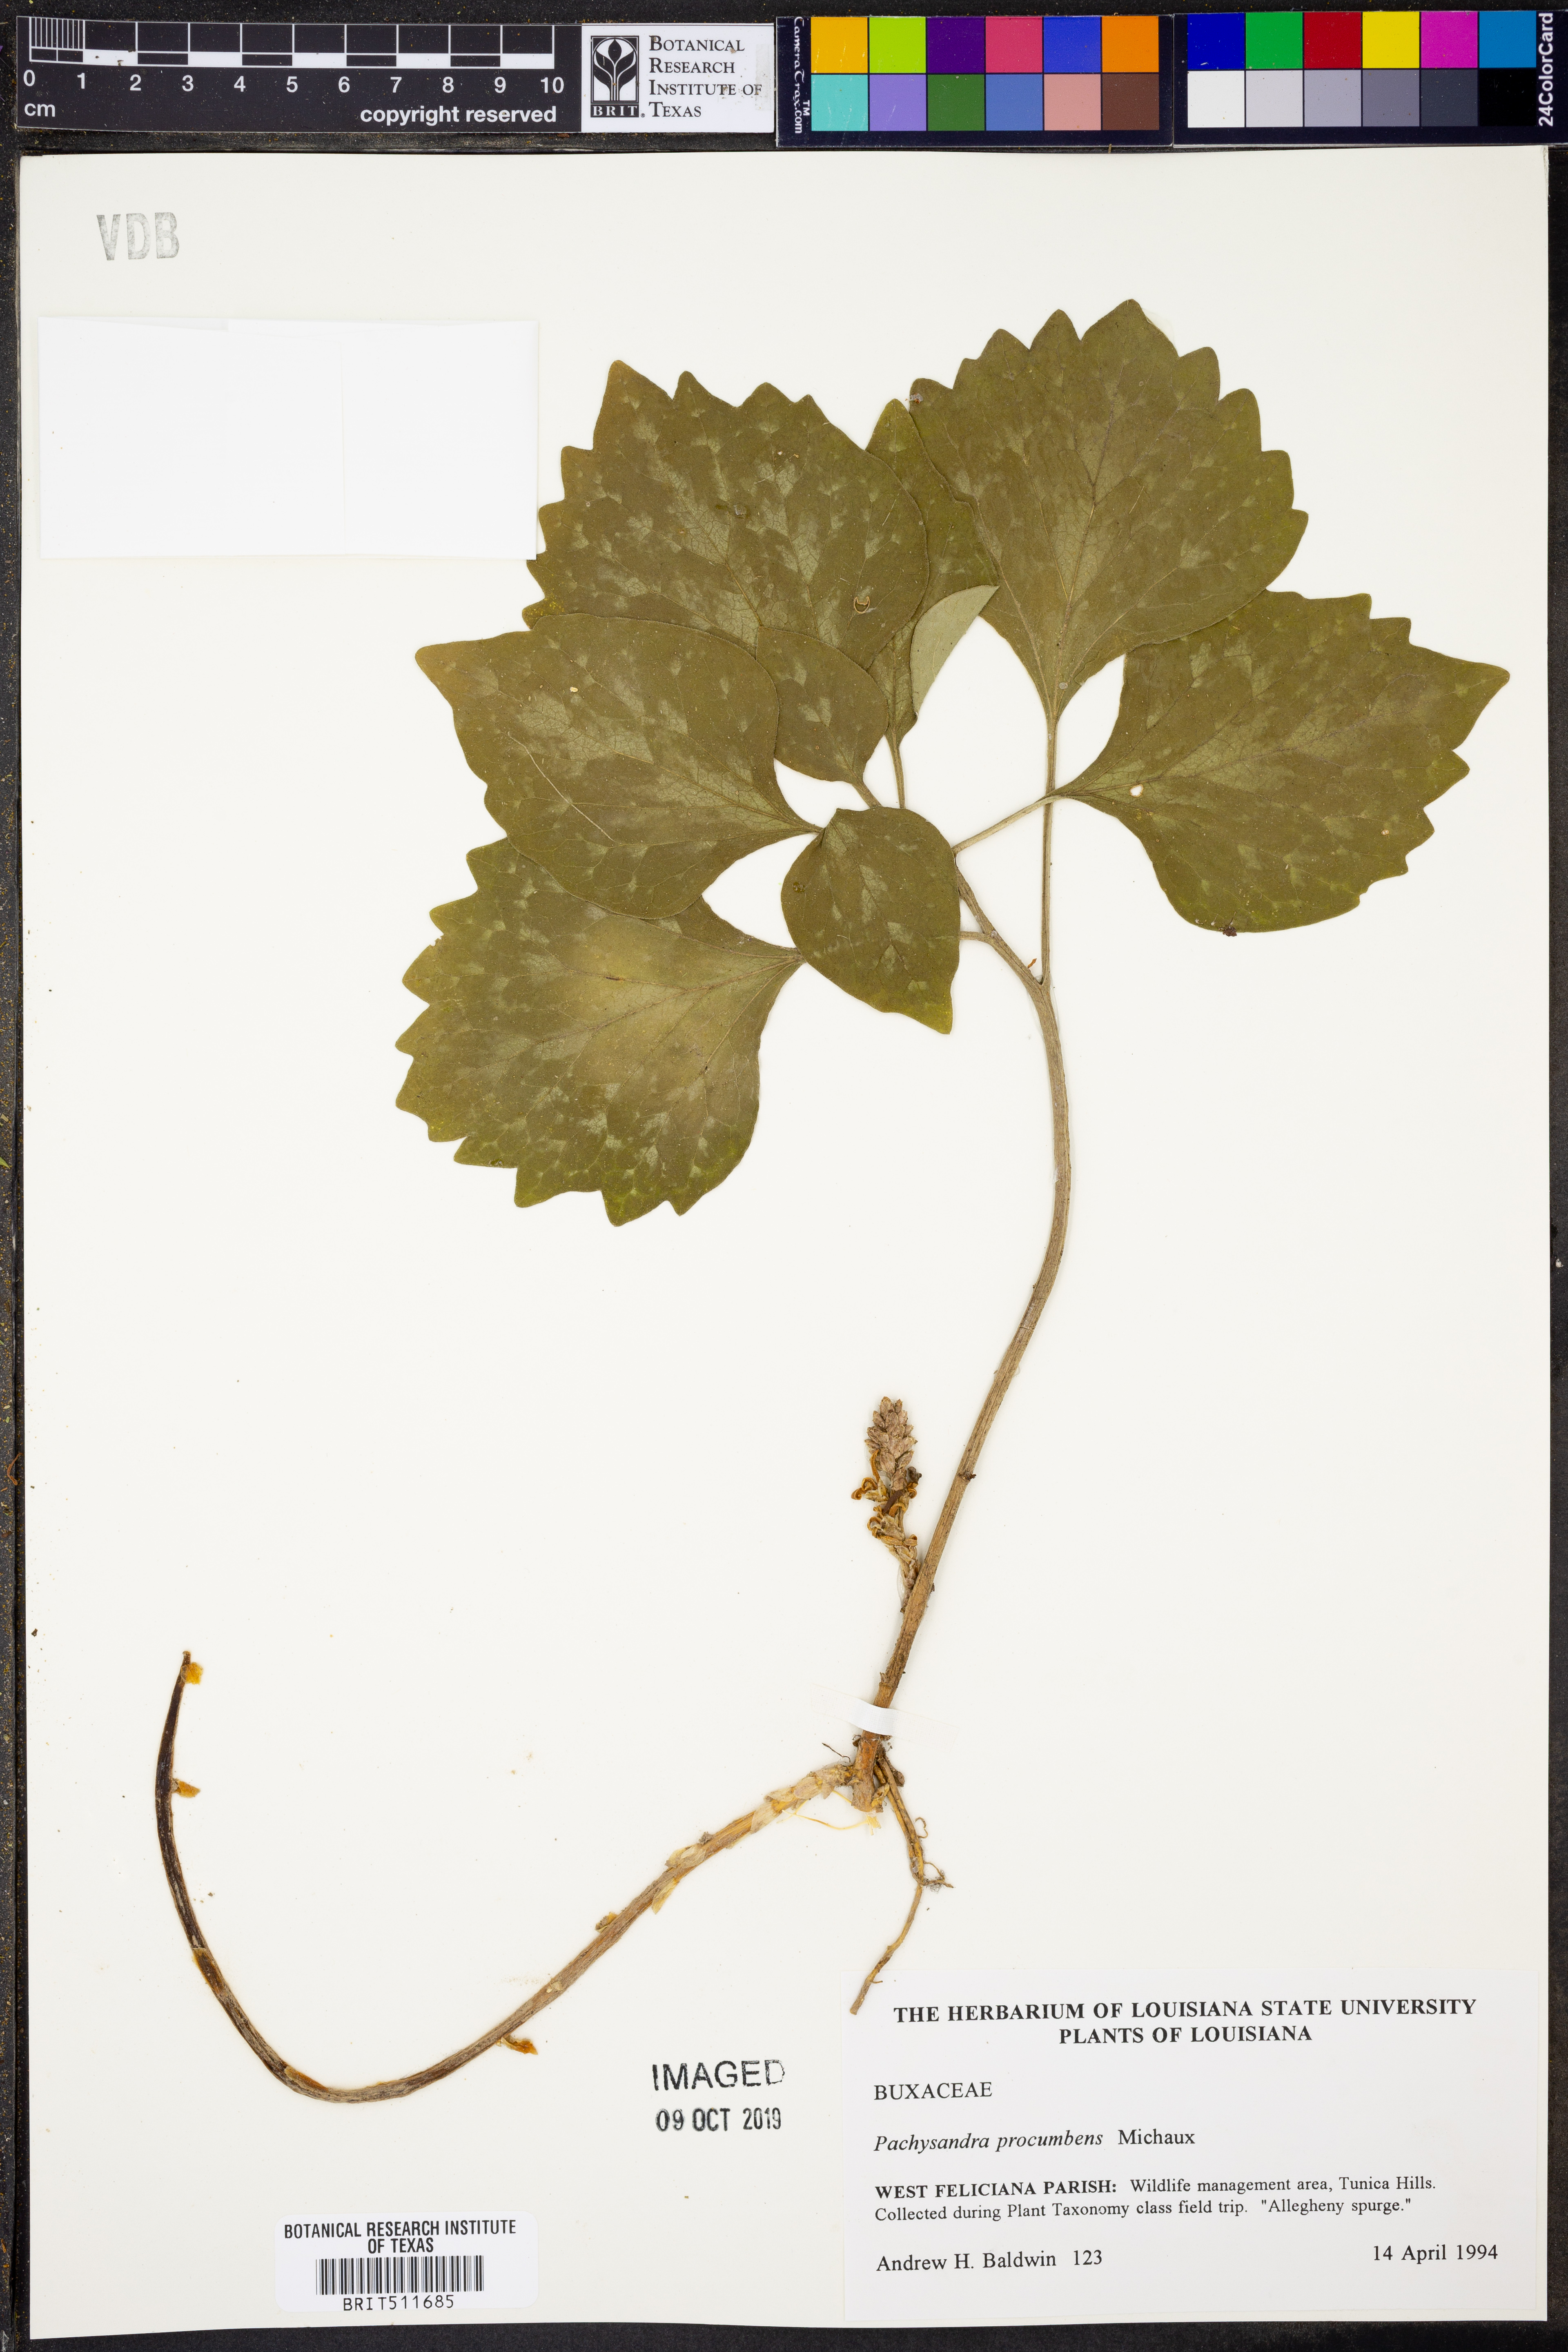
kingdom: Plantae
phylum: Tracheophyta
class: Magnoliopsida
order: Buxales
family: Buxaceae
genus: Pachysandra
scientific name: Pachysandra procumbens
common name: Mountain-spurge
